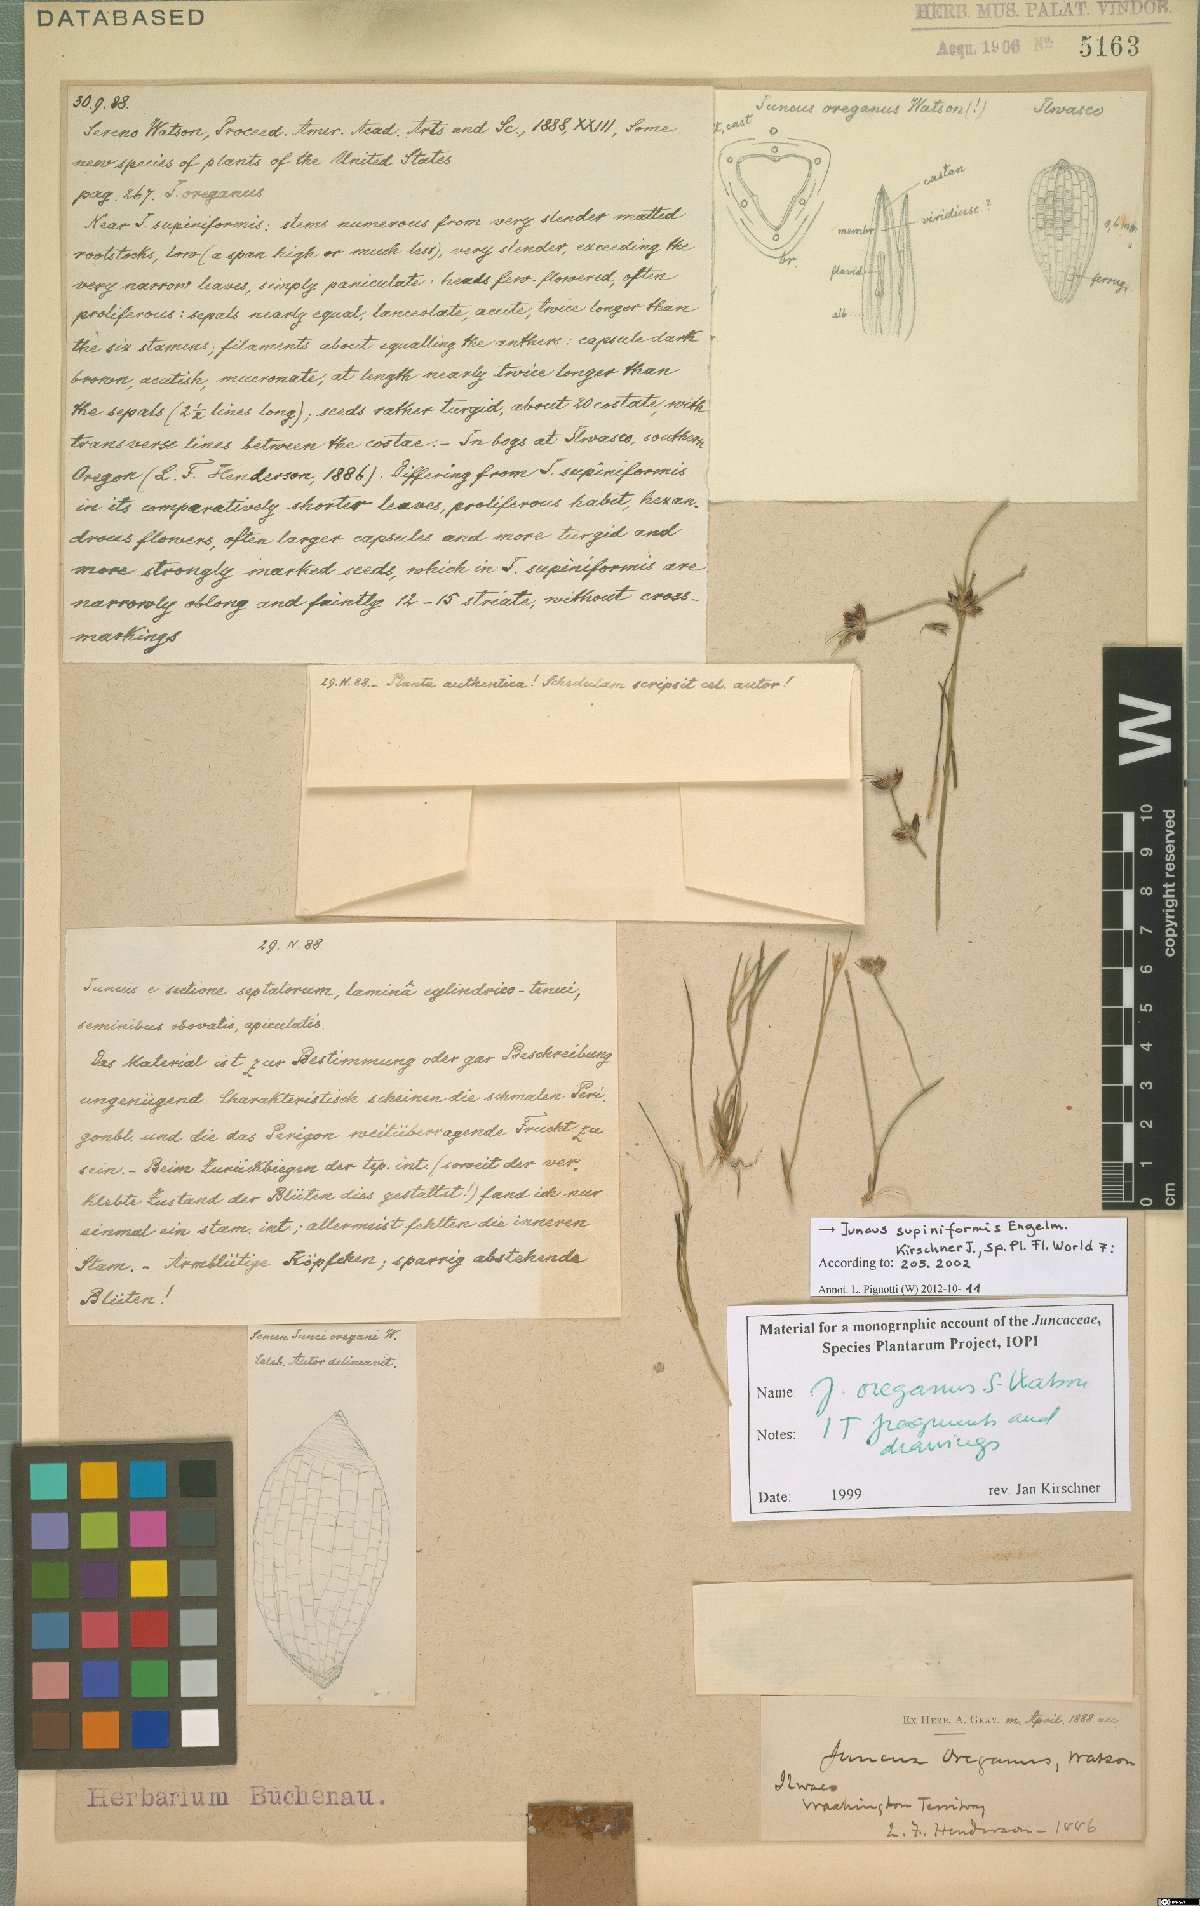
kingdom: Plantae
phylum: Tracheophyta
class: Liliopsida
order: Poales
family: Juncaceae
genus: Juncus
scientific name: Juncus supiniformis
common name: Hairy-leaved rush
